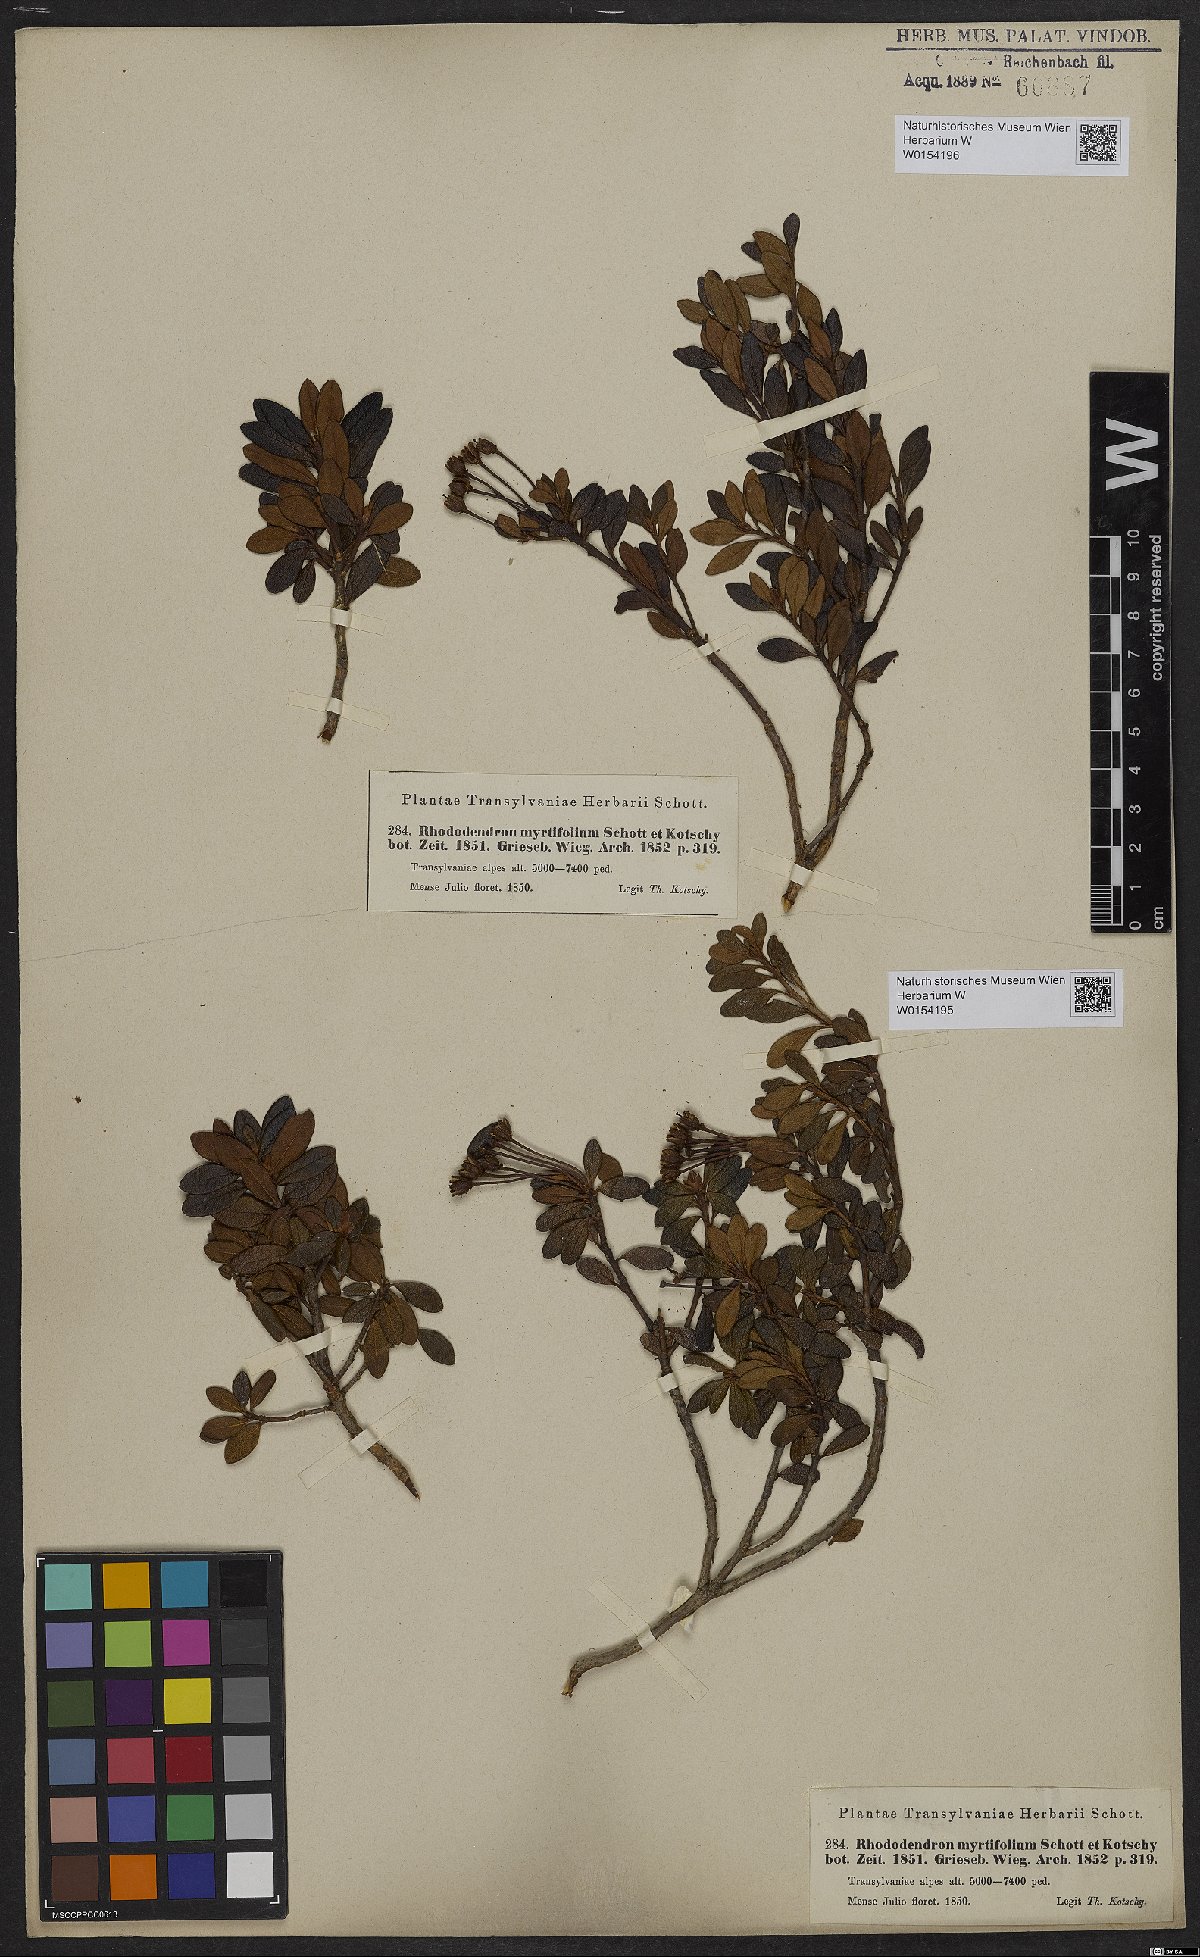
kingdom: Plantae
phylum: Tracheophyta
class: Magnoliopsida
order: Ericales
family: Ericaceae
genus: Rhododendron
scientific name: Rhododendron kotschyi
